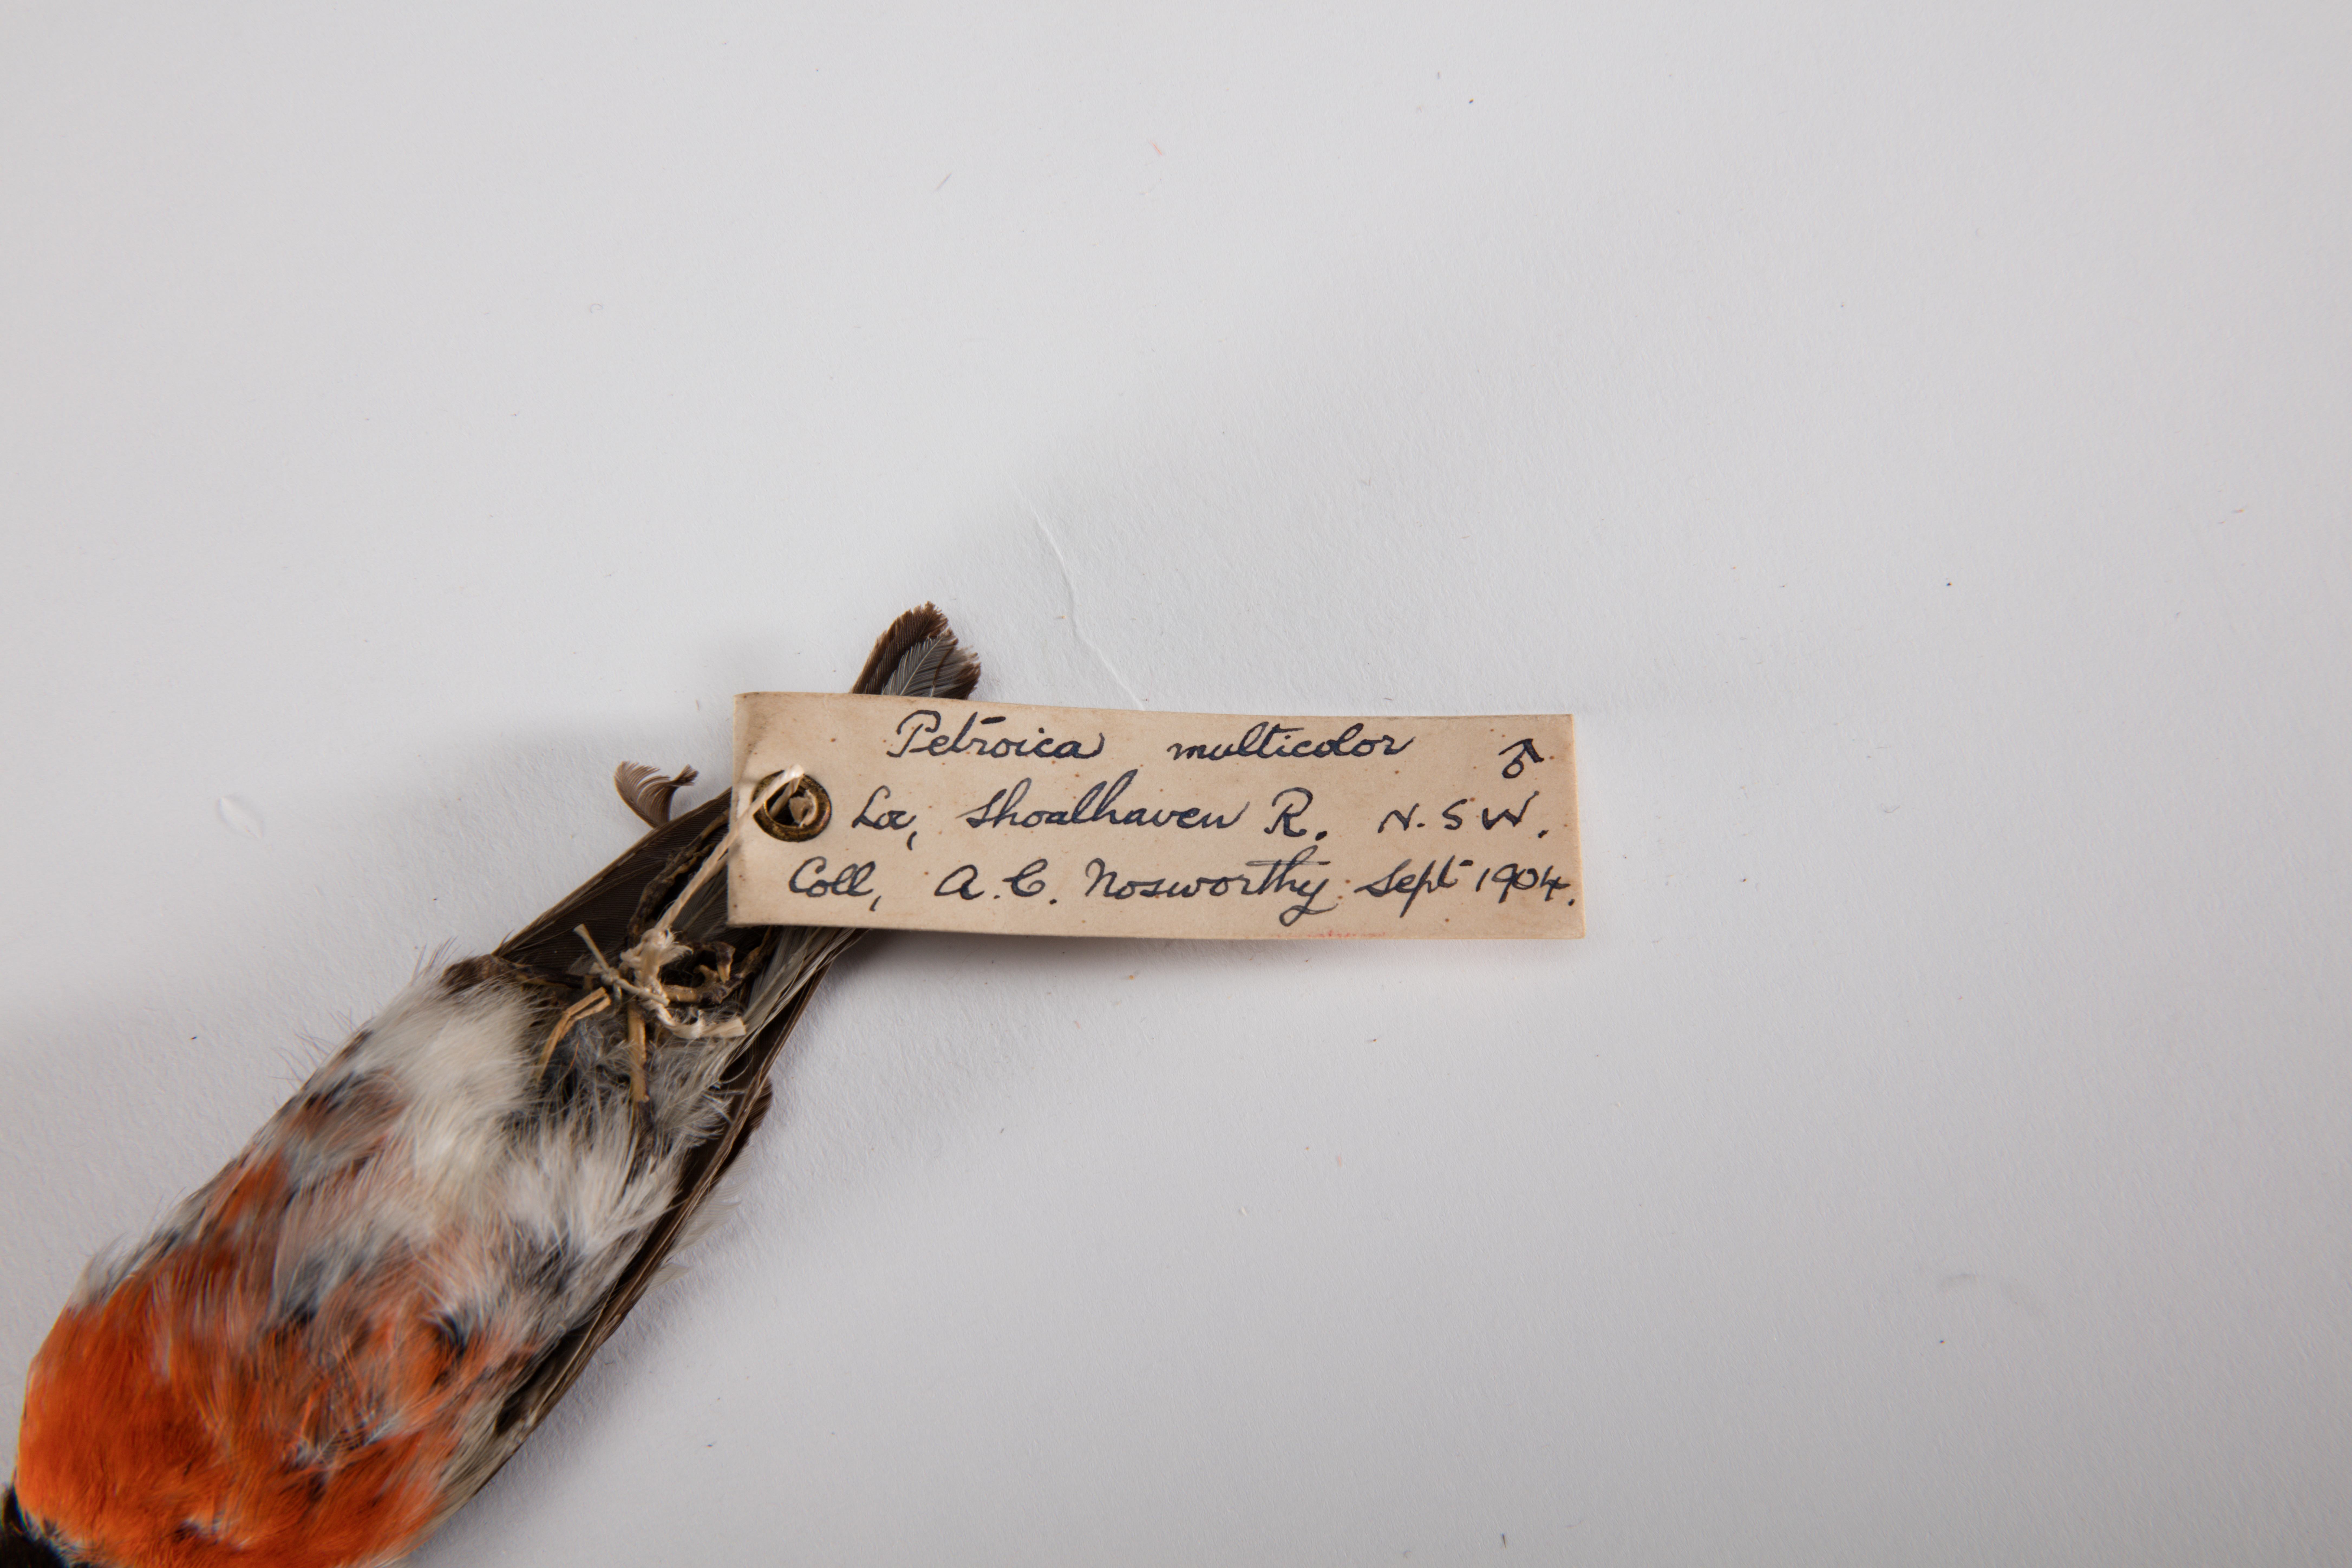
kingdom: Animalia
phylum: Chordata
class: Aves
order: Passeriformes
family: Petroicidae
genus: Petroica
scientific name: Petroica multicolor
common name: Pacific robin
